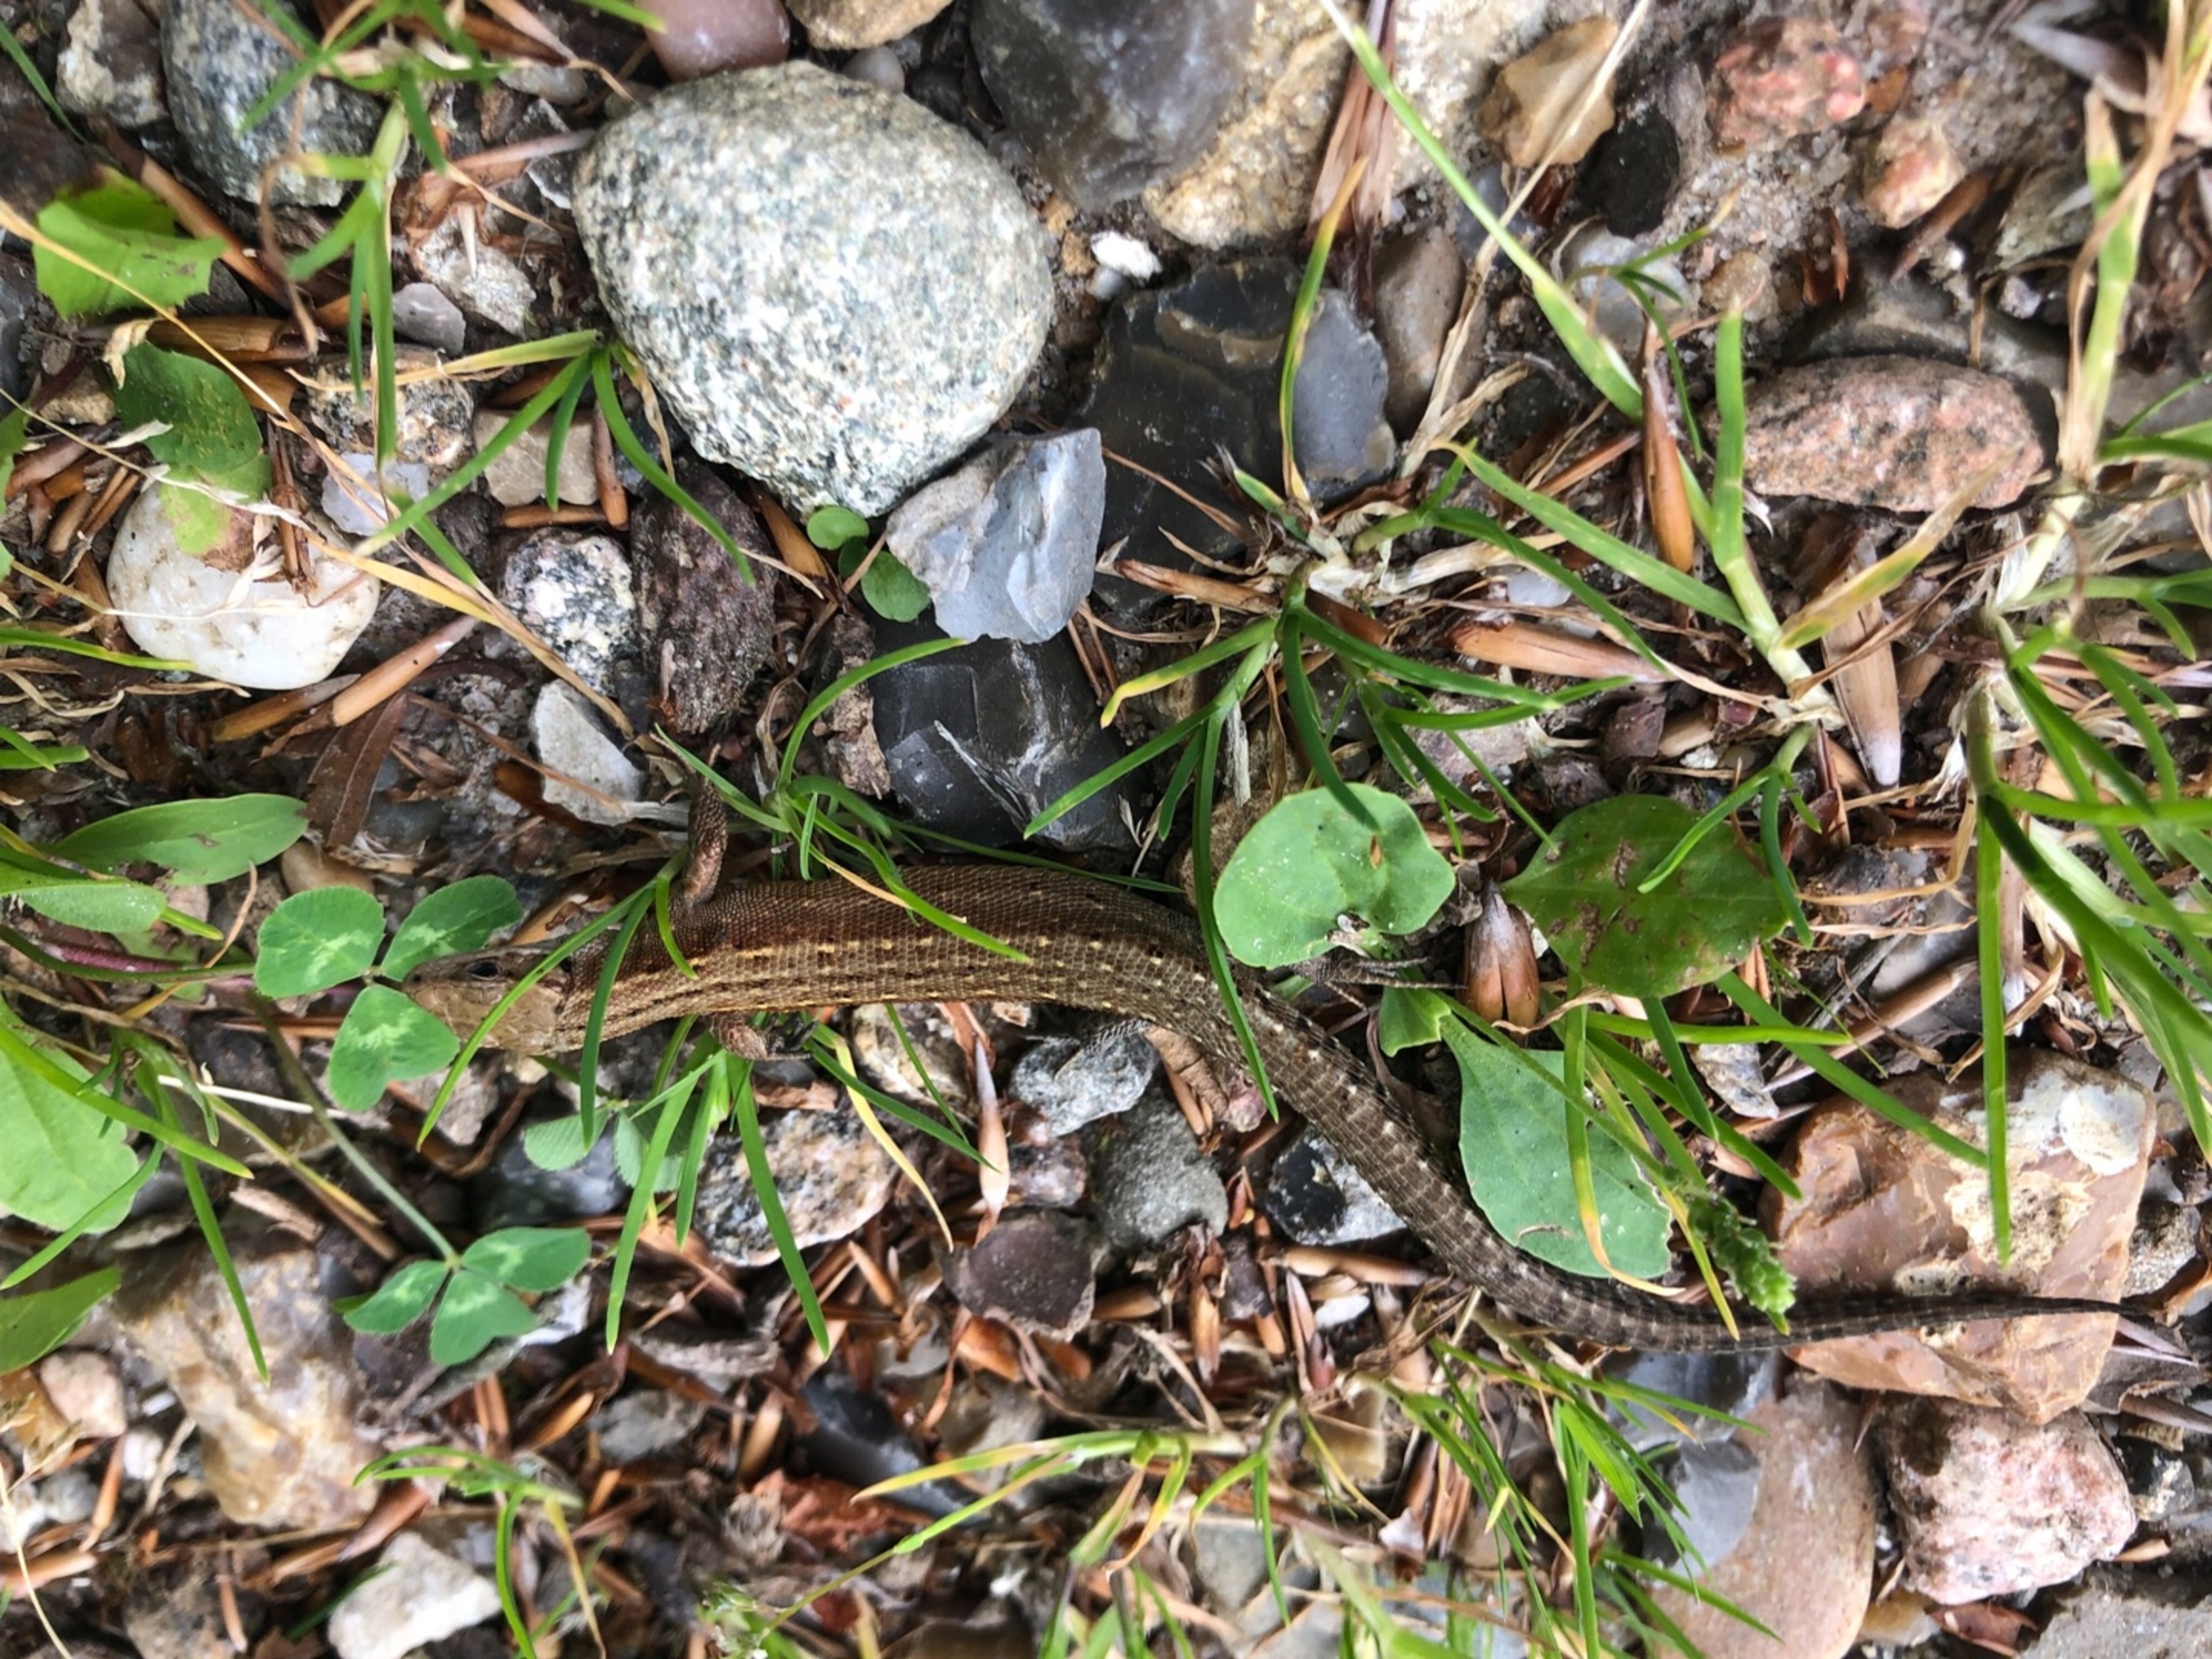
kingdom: Animalia
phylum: Chordata
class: Squamata
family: Lacertidae
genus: Zootoca
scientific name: Zootoca vivipara
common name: Skovfirben
